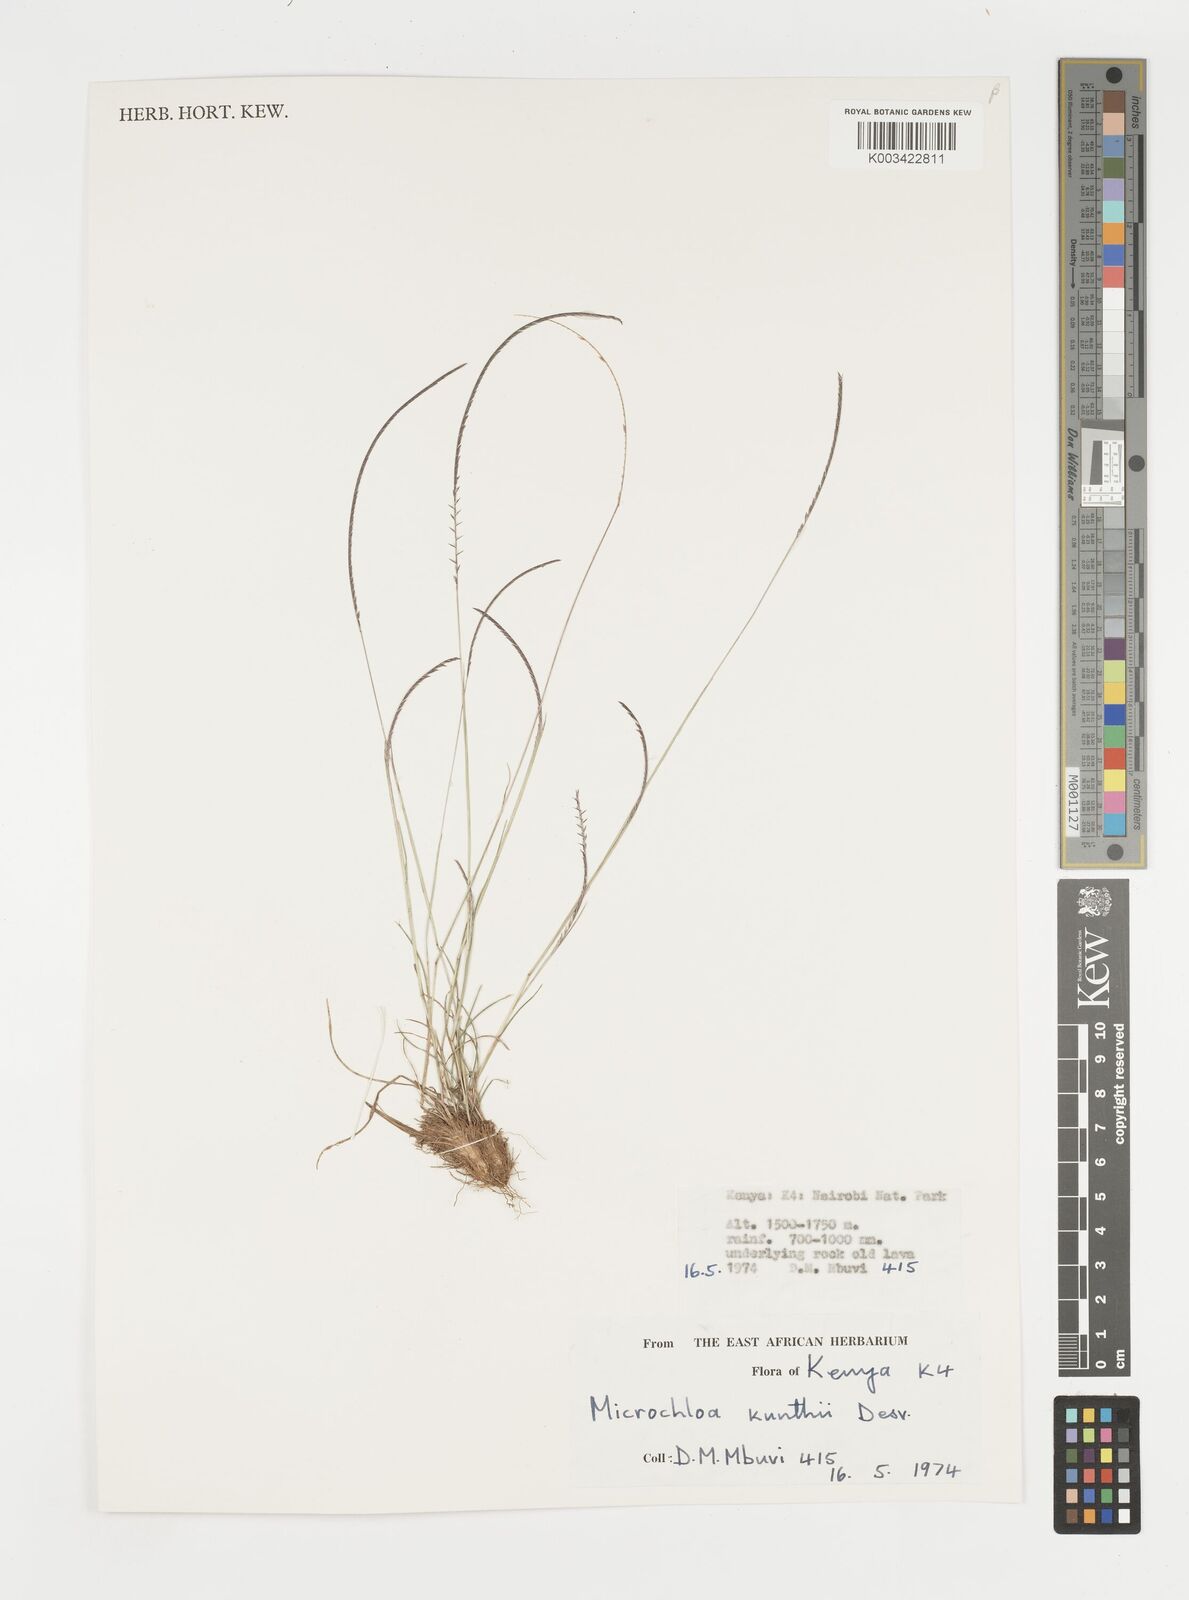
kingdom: Plantae
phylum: Tracheophyta
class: Liliopsida
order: Poales
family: Poaceae
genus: Microchloa
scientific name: Microchloa kunthii
